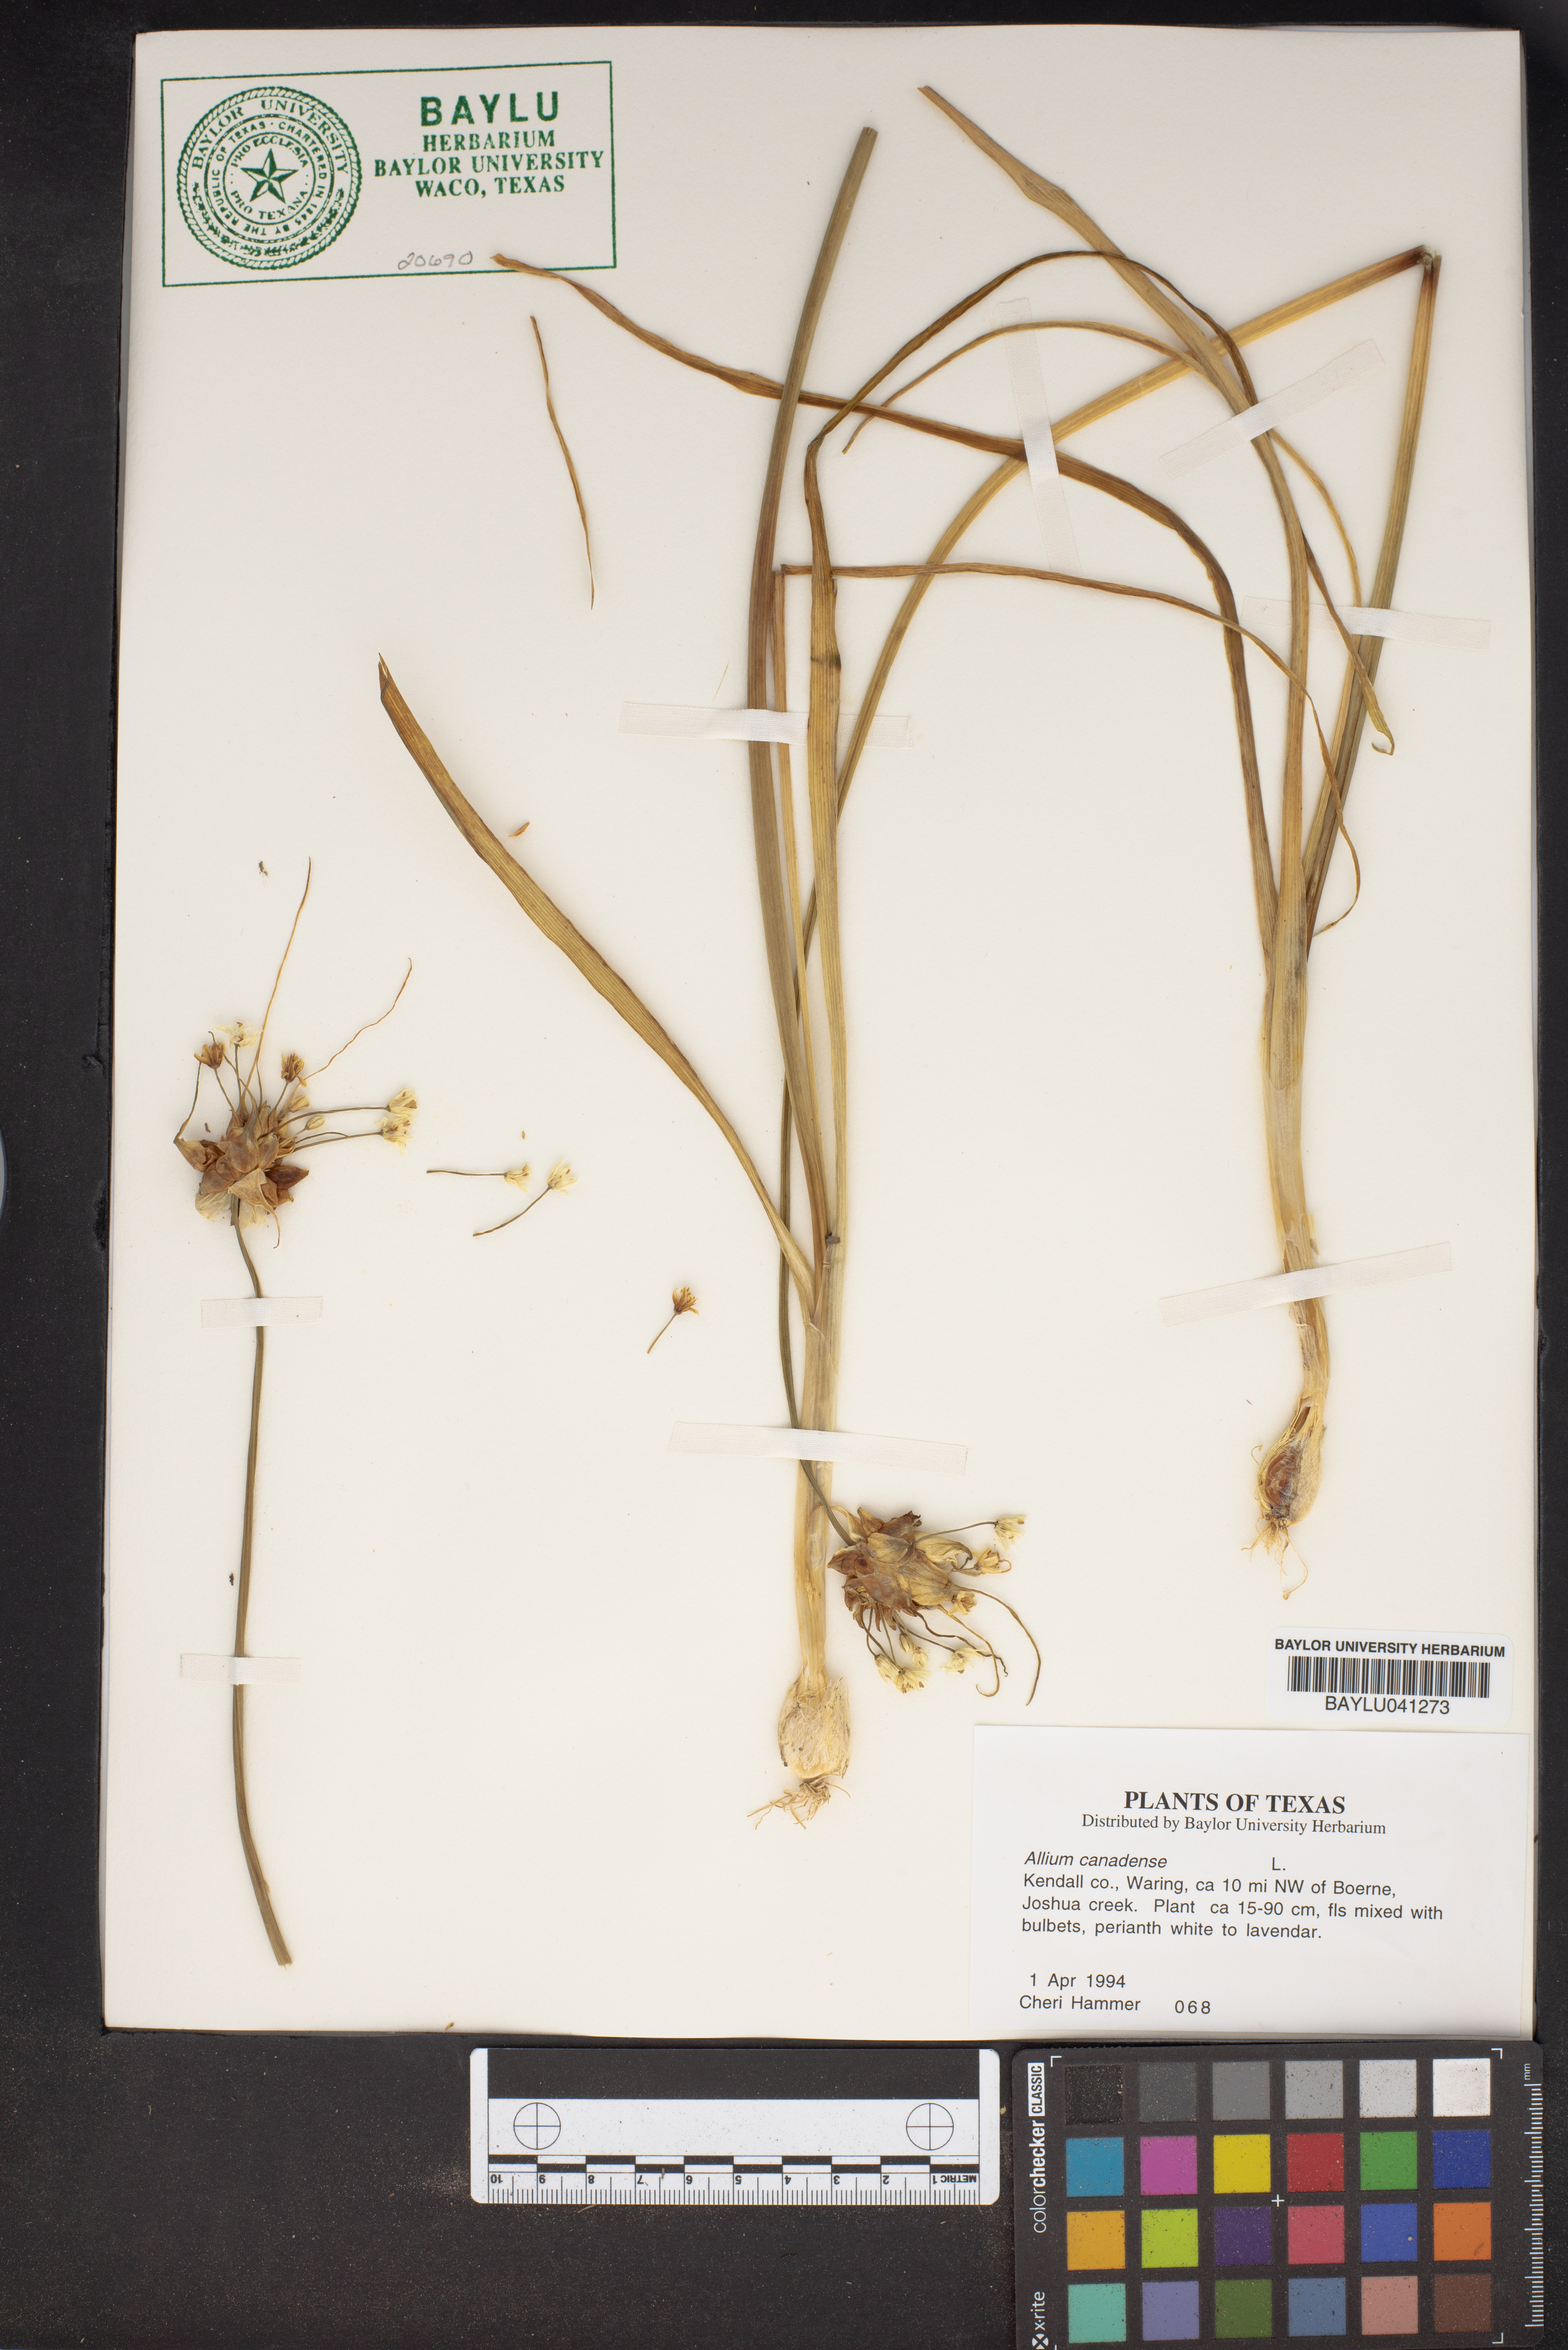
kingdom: Plantae
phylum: Tracheophyta
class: Liliopsida
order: Asparagales
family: Amaryllidaceae
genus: Allium
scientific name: Allium canadense
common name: Meadow garlic
